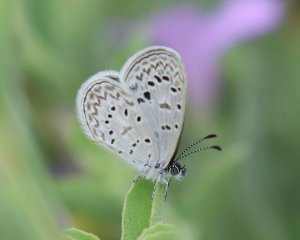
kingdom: Animalia
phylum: Arthropoda
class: Insecta
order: Lepidoptera
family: Lycaenidae
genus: Lycaena
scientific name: Lycaena cyna
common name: Cyna Blue
